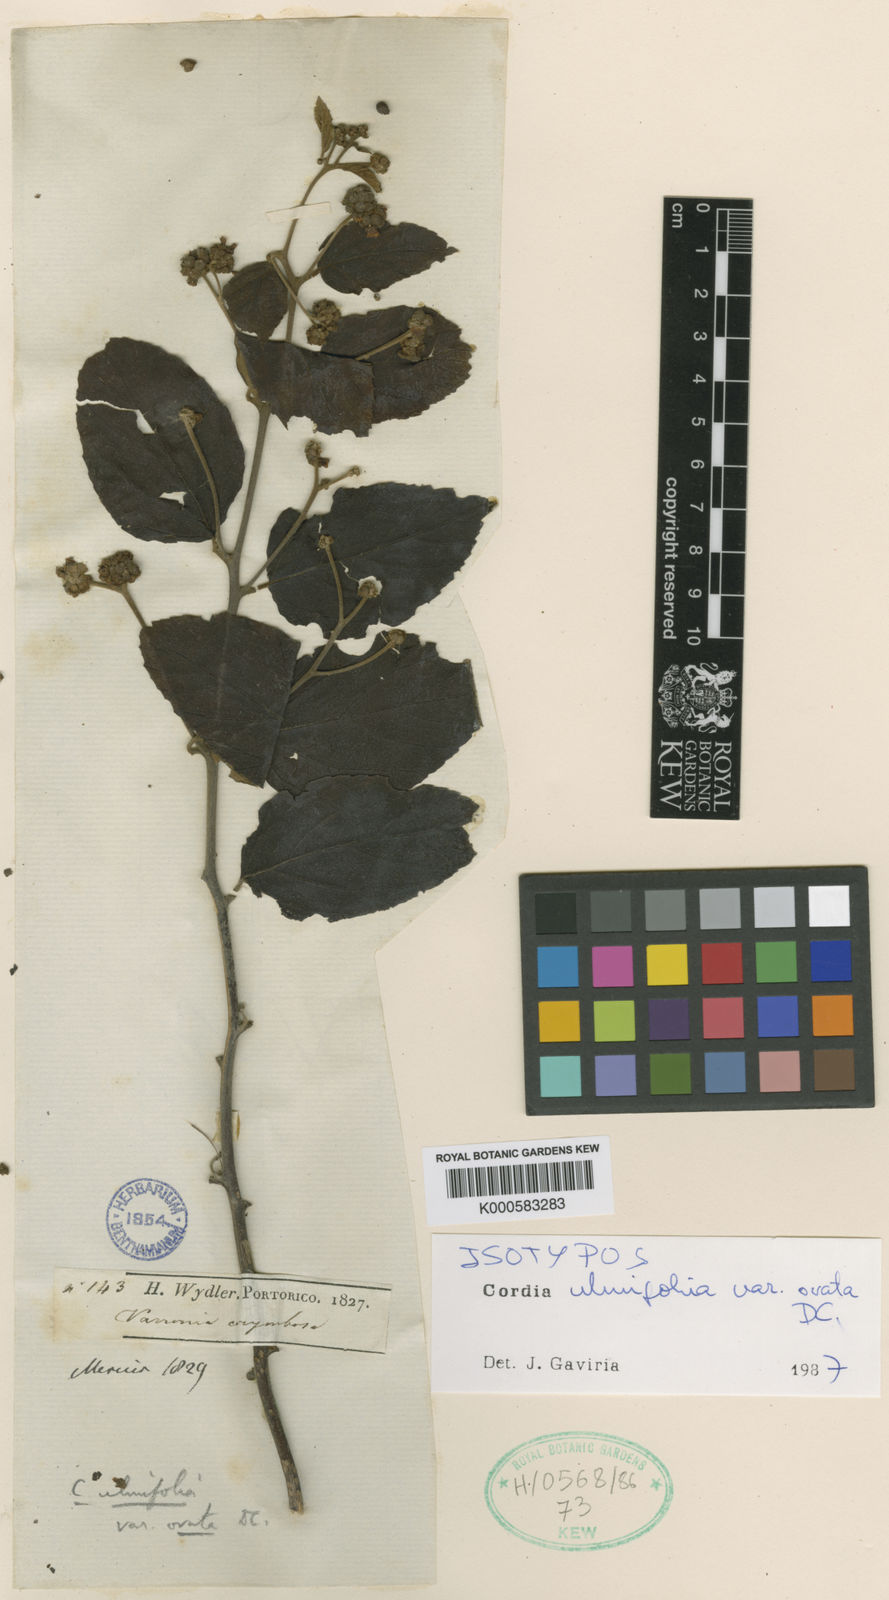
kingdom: Plantae
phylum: Tracheophyta
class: Magnoliopsida
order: Boraginales
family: Cordiaceae
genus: Cordia
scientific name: Cordia
